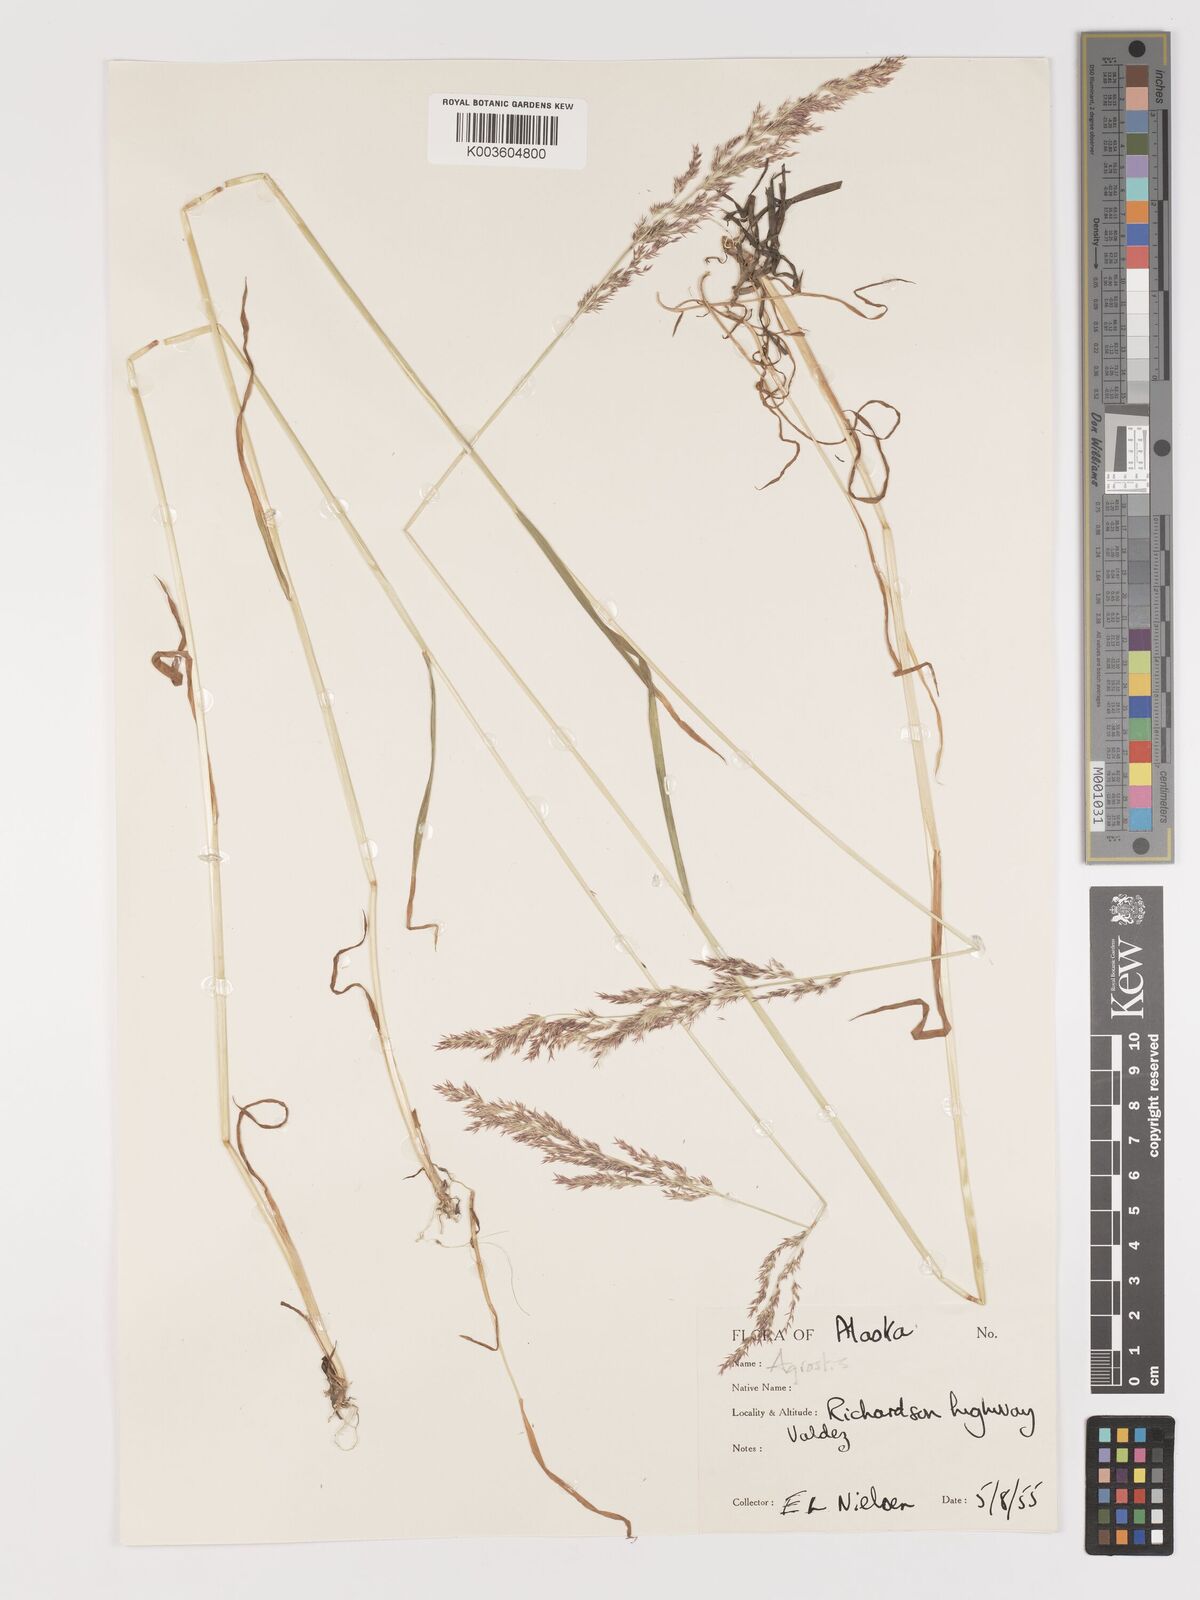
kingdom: Plantae
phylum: Tracheophyta
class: Liliopsida
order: Poales
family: Poaceae
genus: Agrostis
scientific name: Agrostis
